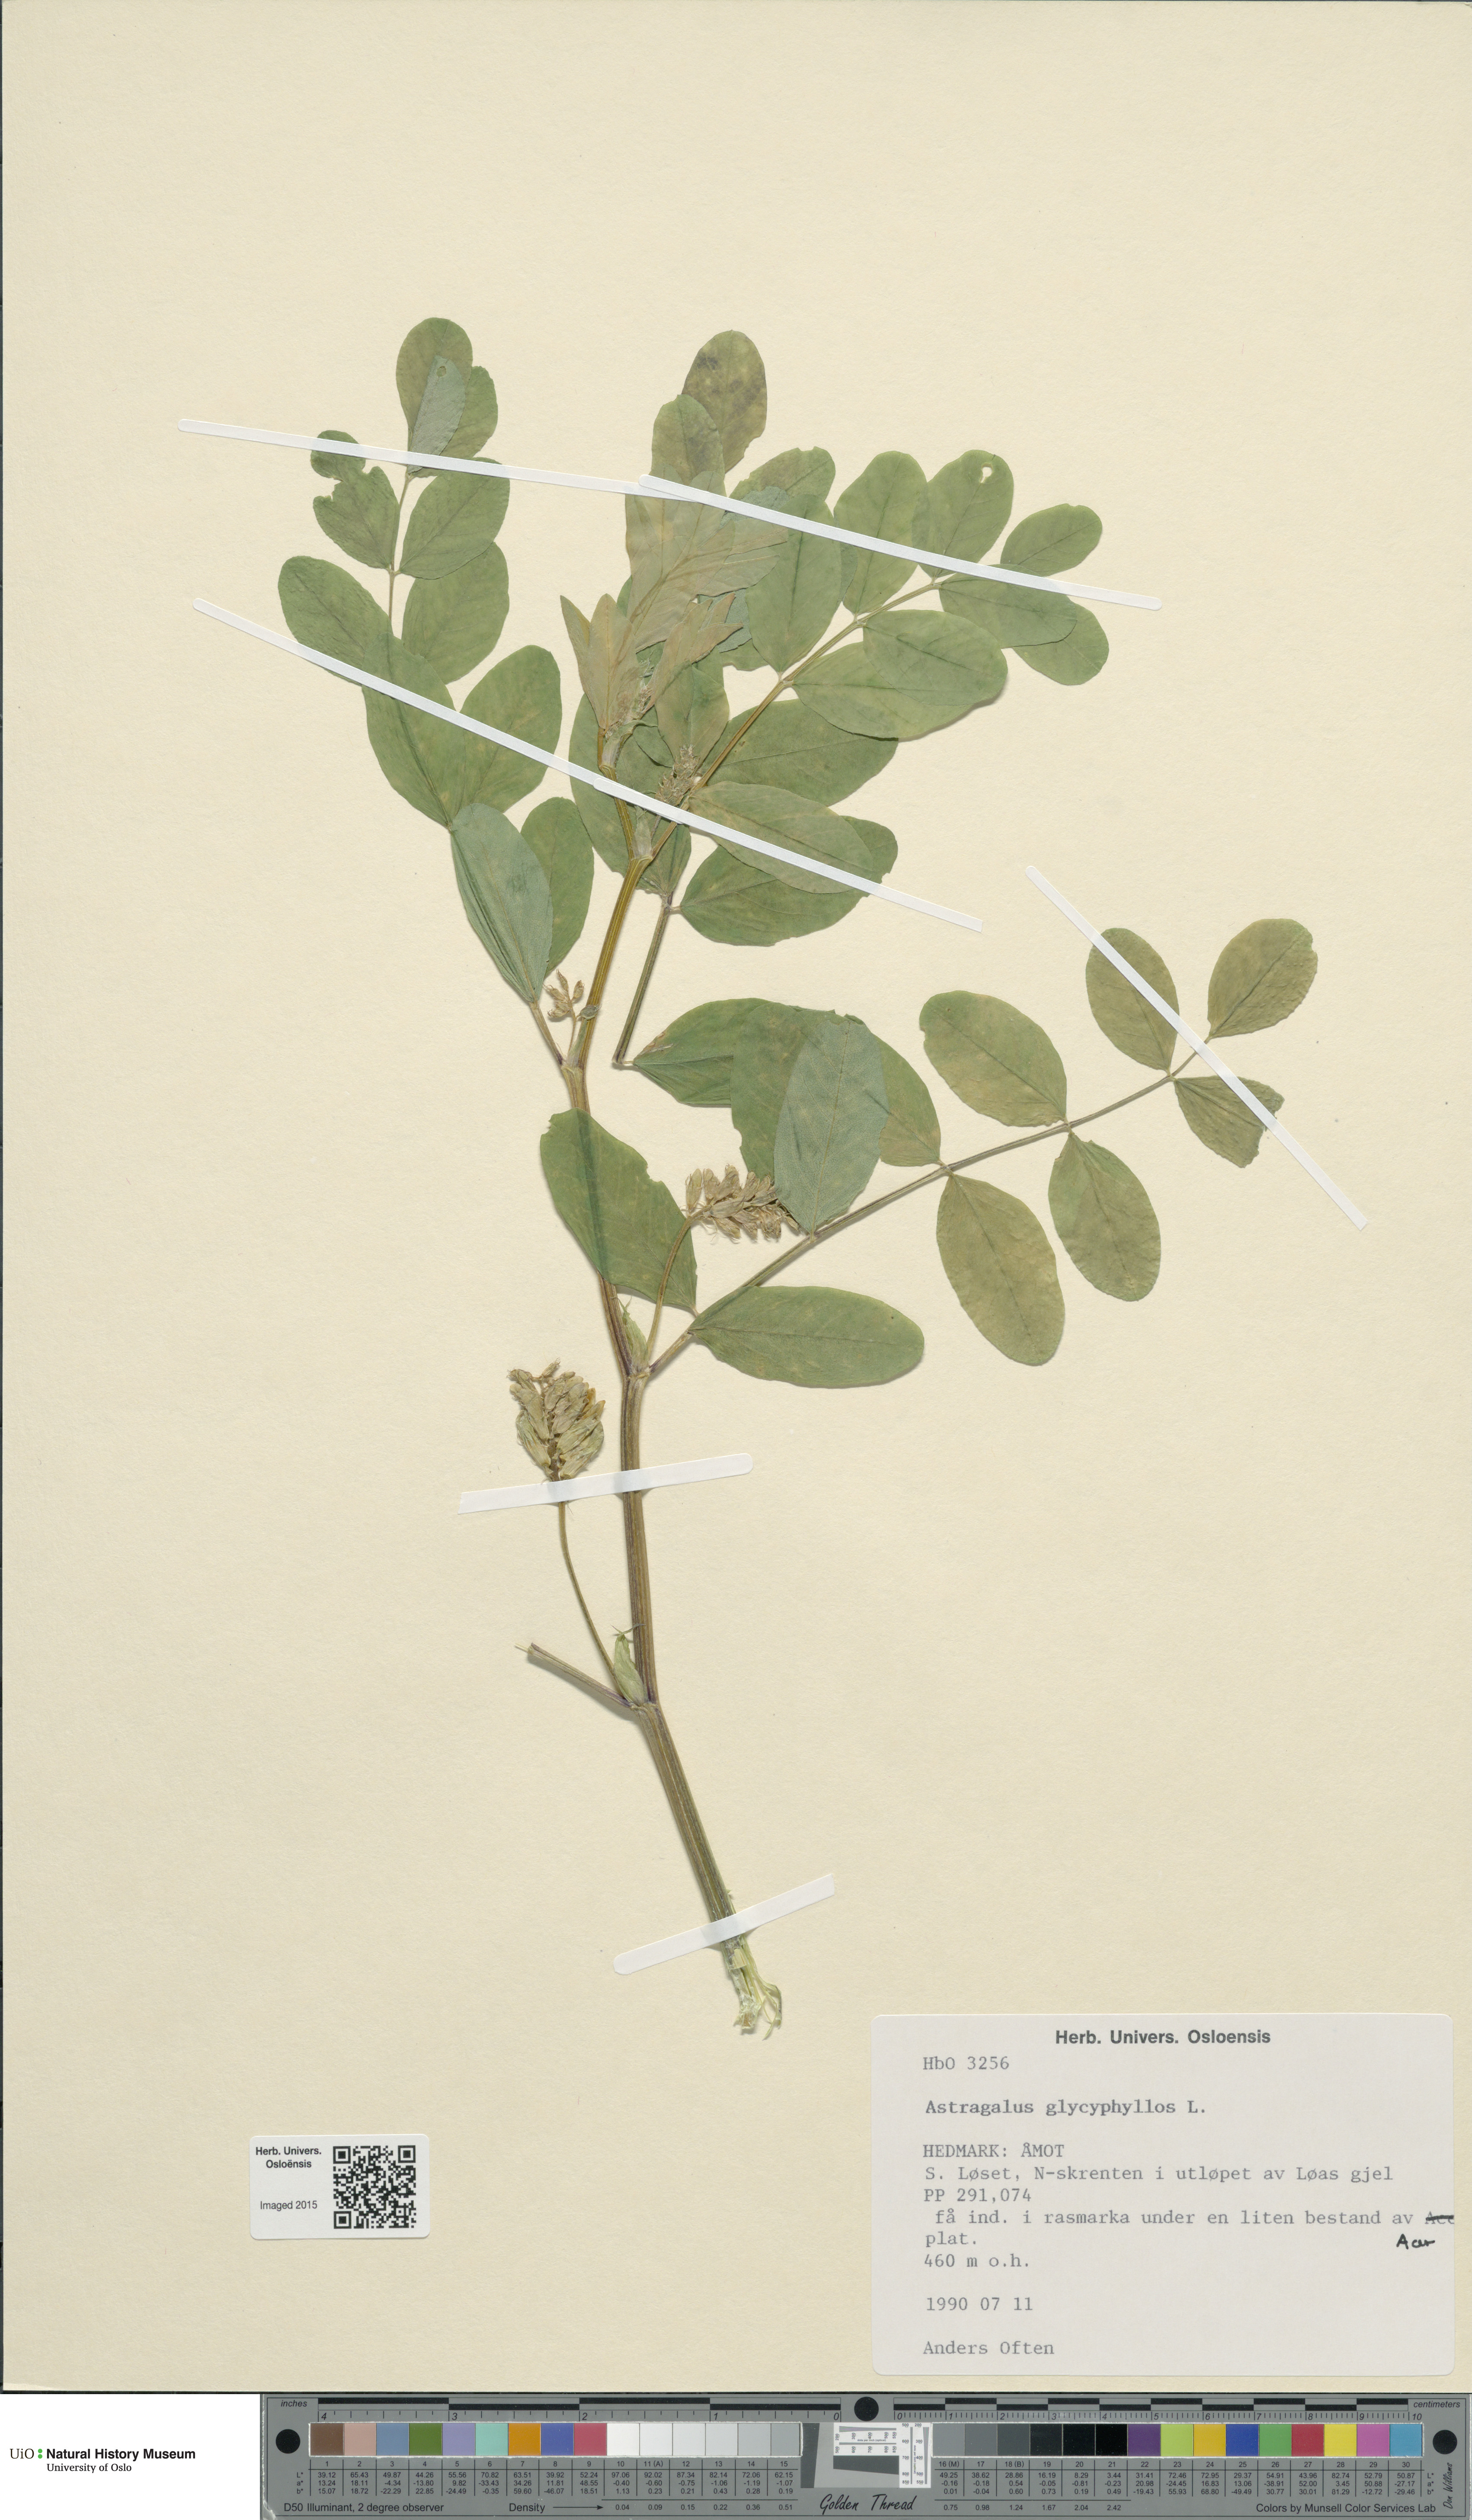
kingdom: Plantae
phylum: Tracheophyta
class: Magnoliopsida
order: Fabales
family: Fabaceae
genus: Astragalus
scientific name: Astragalus glycyphyllos
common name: Wild liquorice
